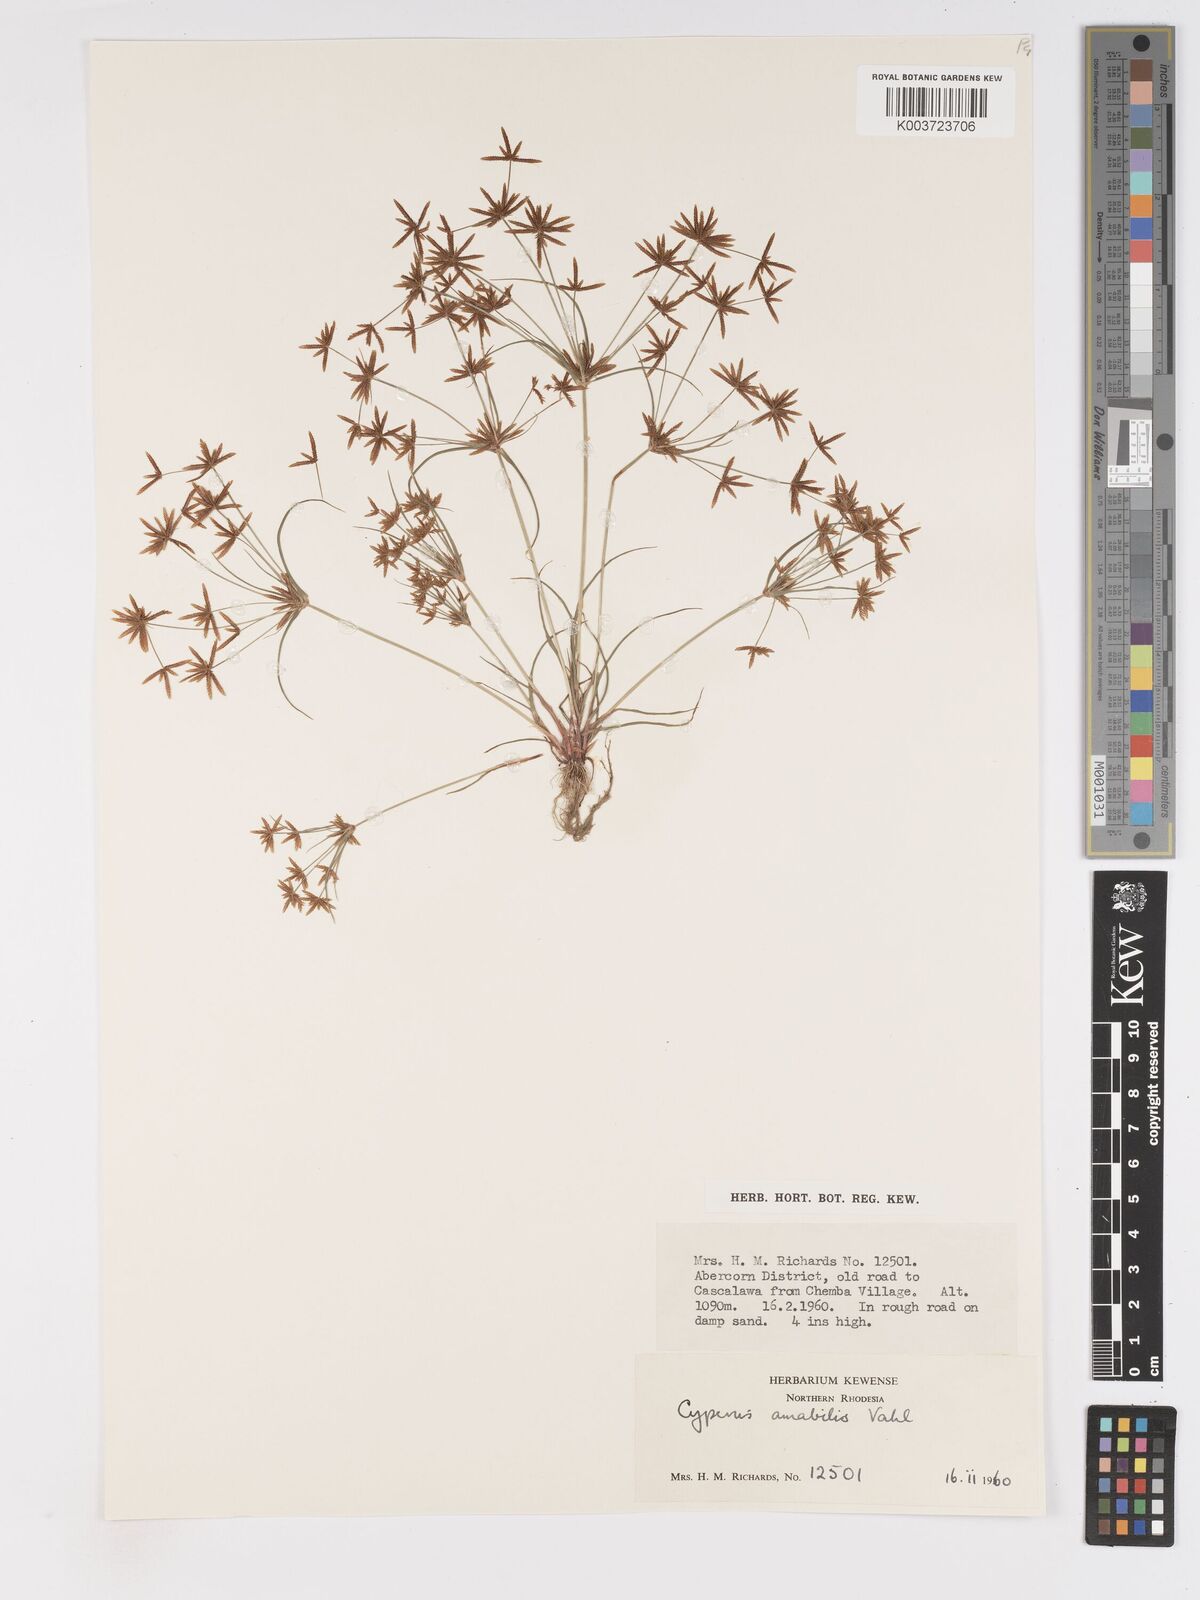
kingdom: Plantae
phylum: Tracheophyta
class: Liliopsida
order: Poales
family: Cyperaceae
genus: Cyperus
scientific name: Cyperus amabilis
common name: Foothill flat sedge
